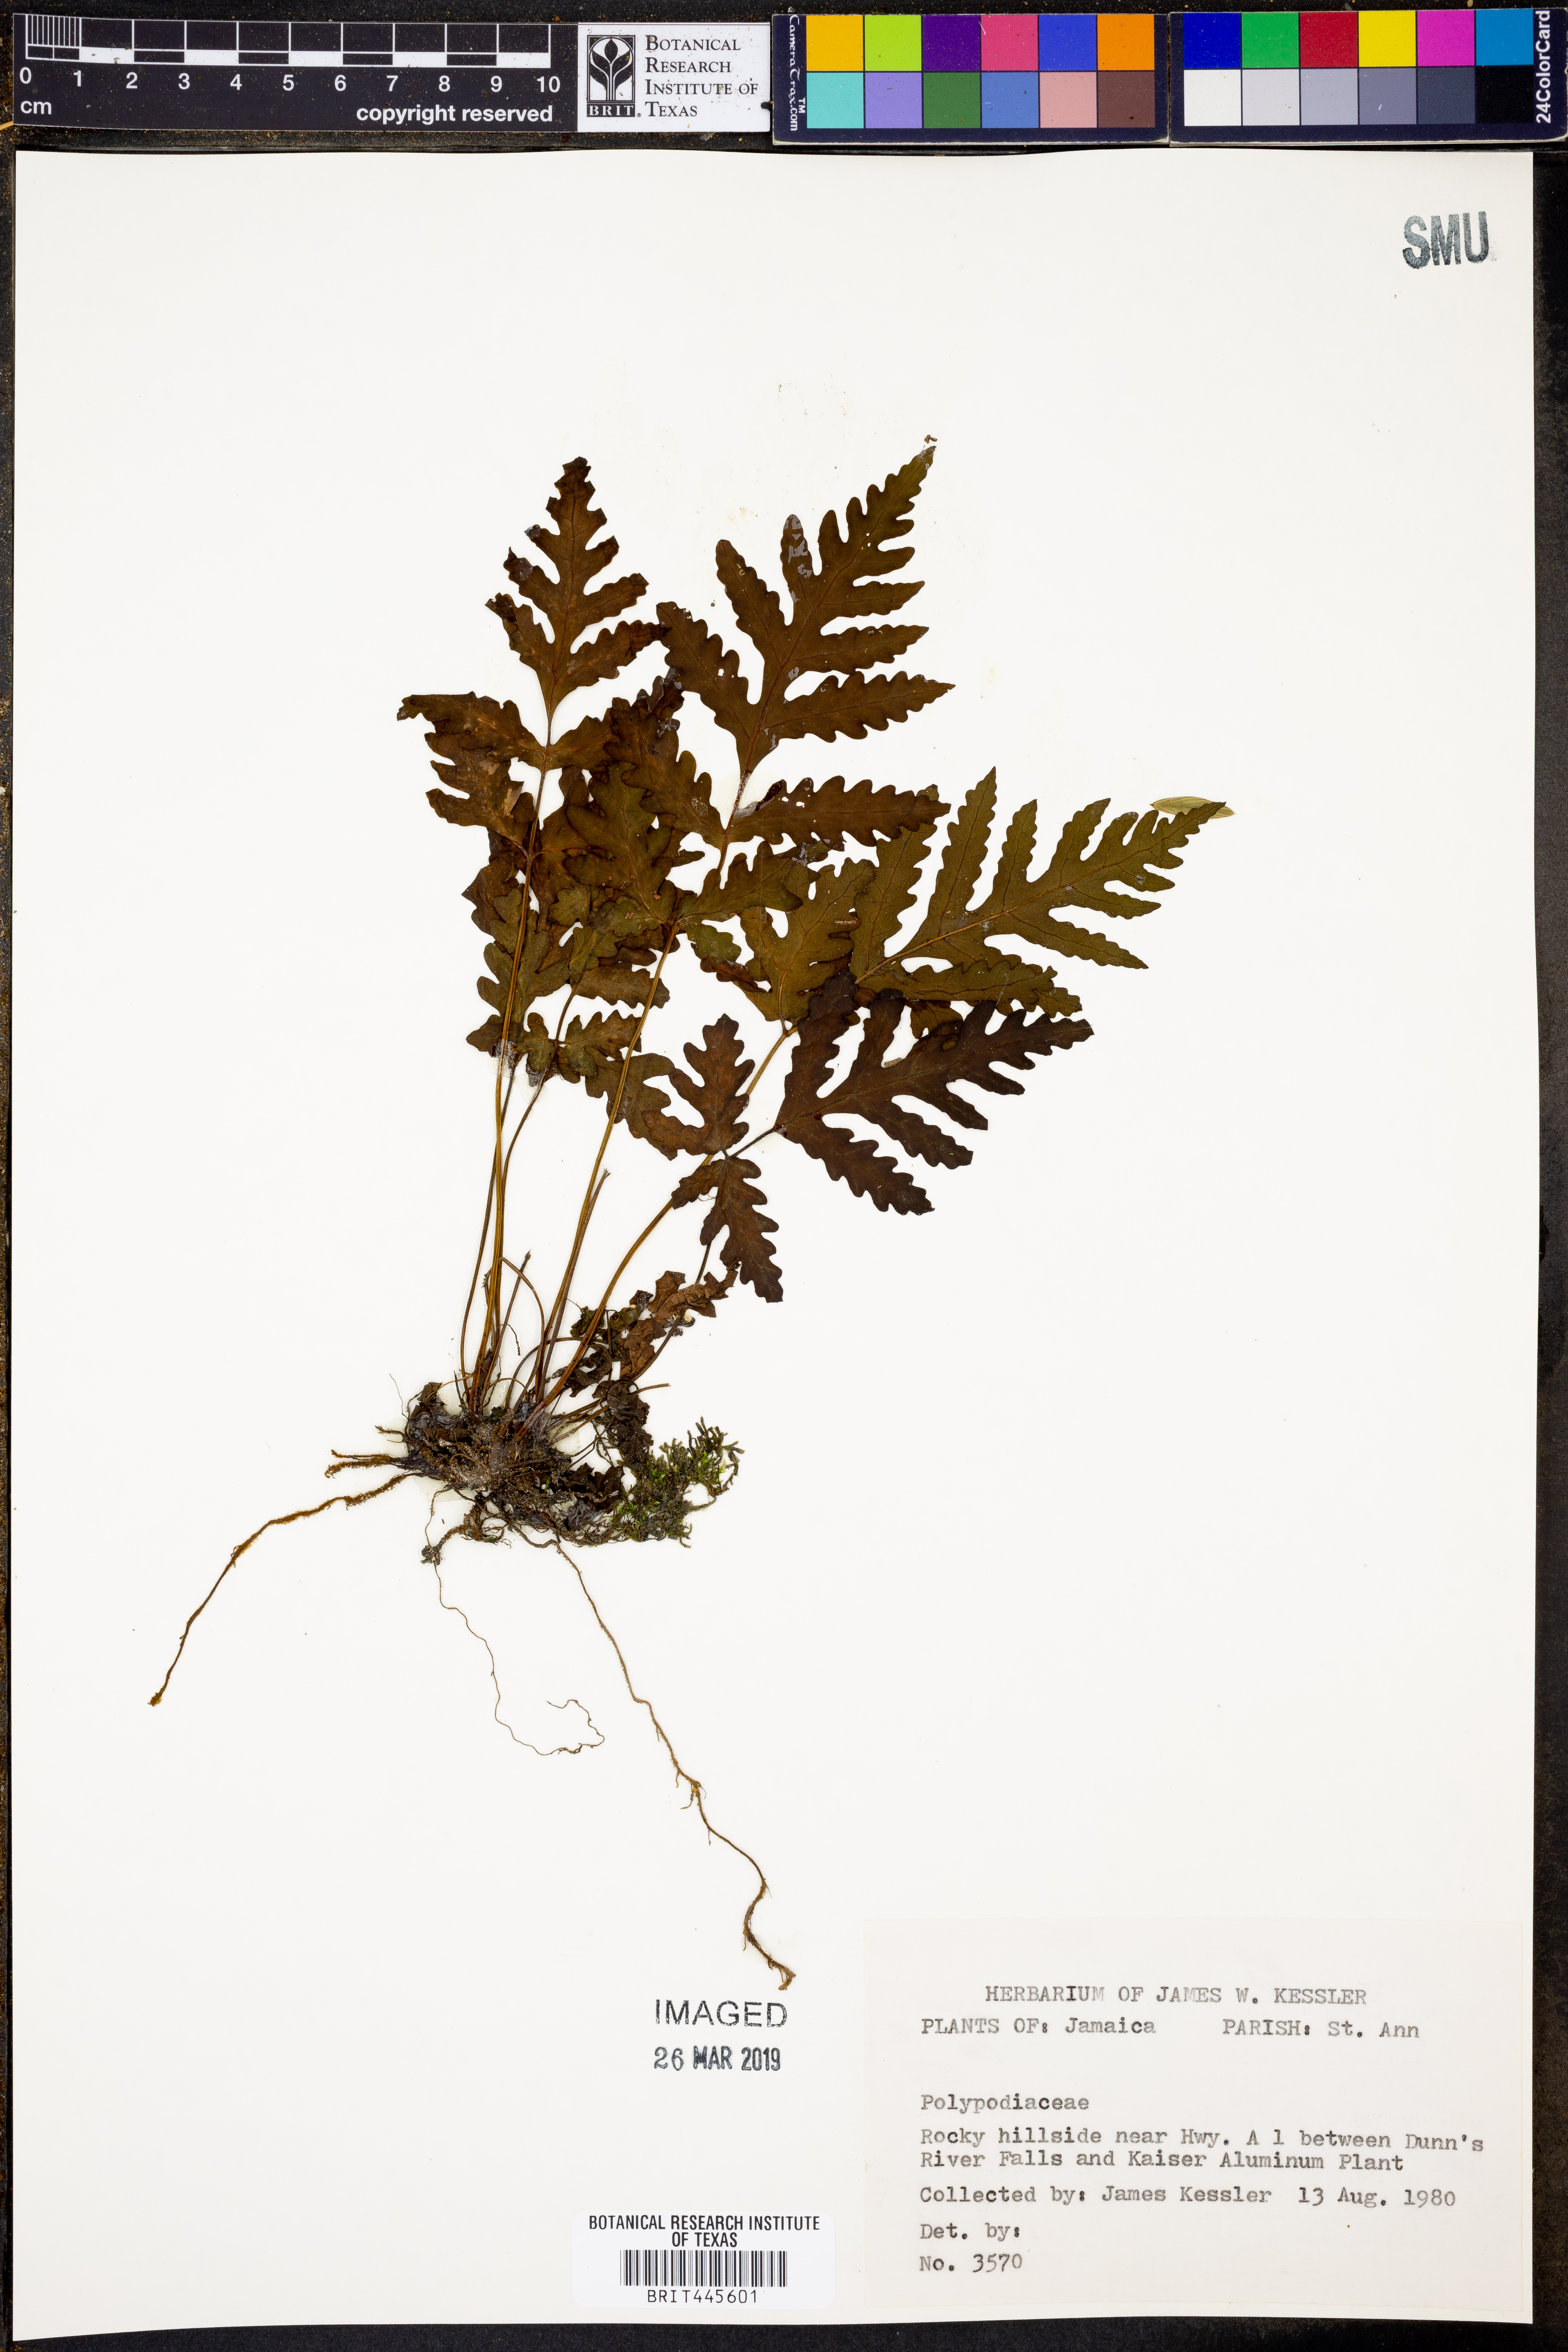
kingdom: Plantae
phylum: Tracheophyta
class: Polypodiopsida
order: Polypodiales
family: Polypodiaceae
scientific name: Polypodiaceae
